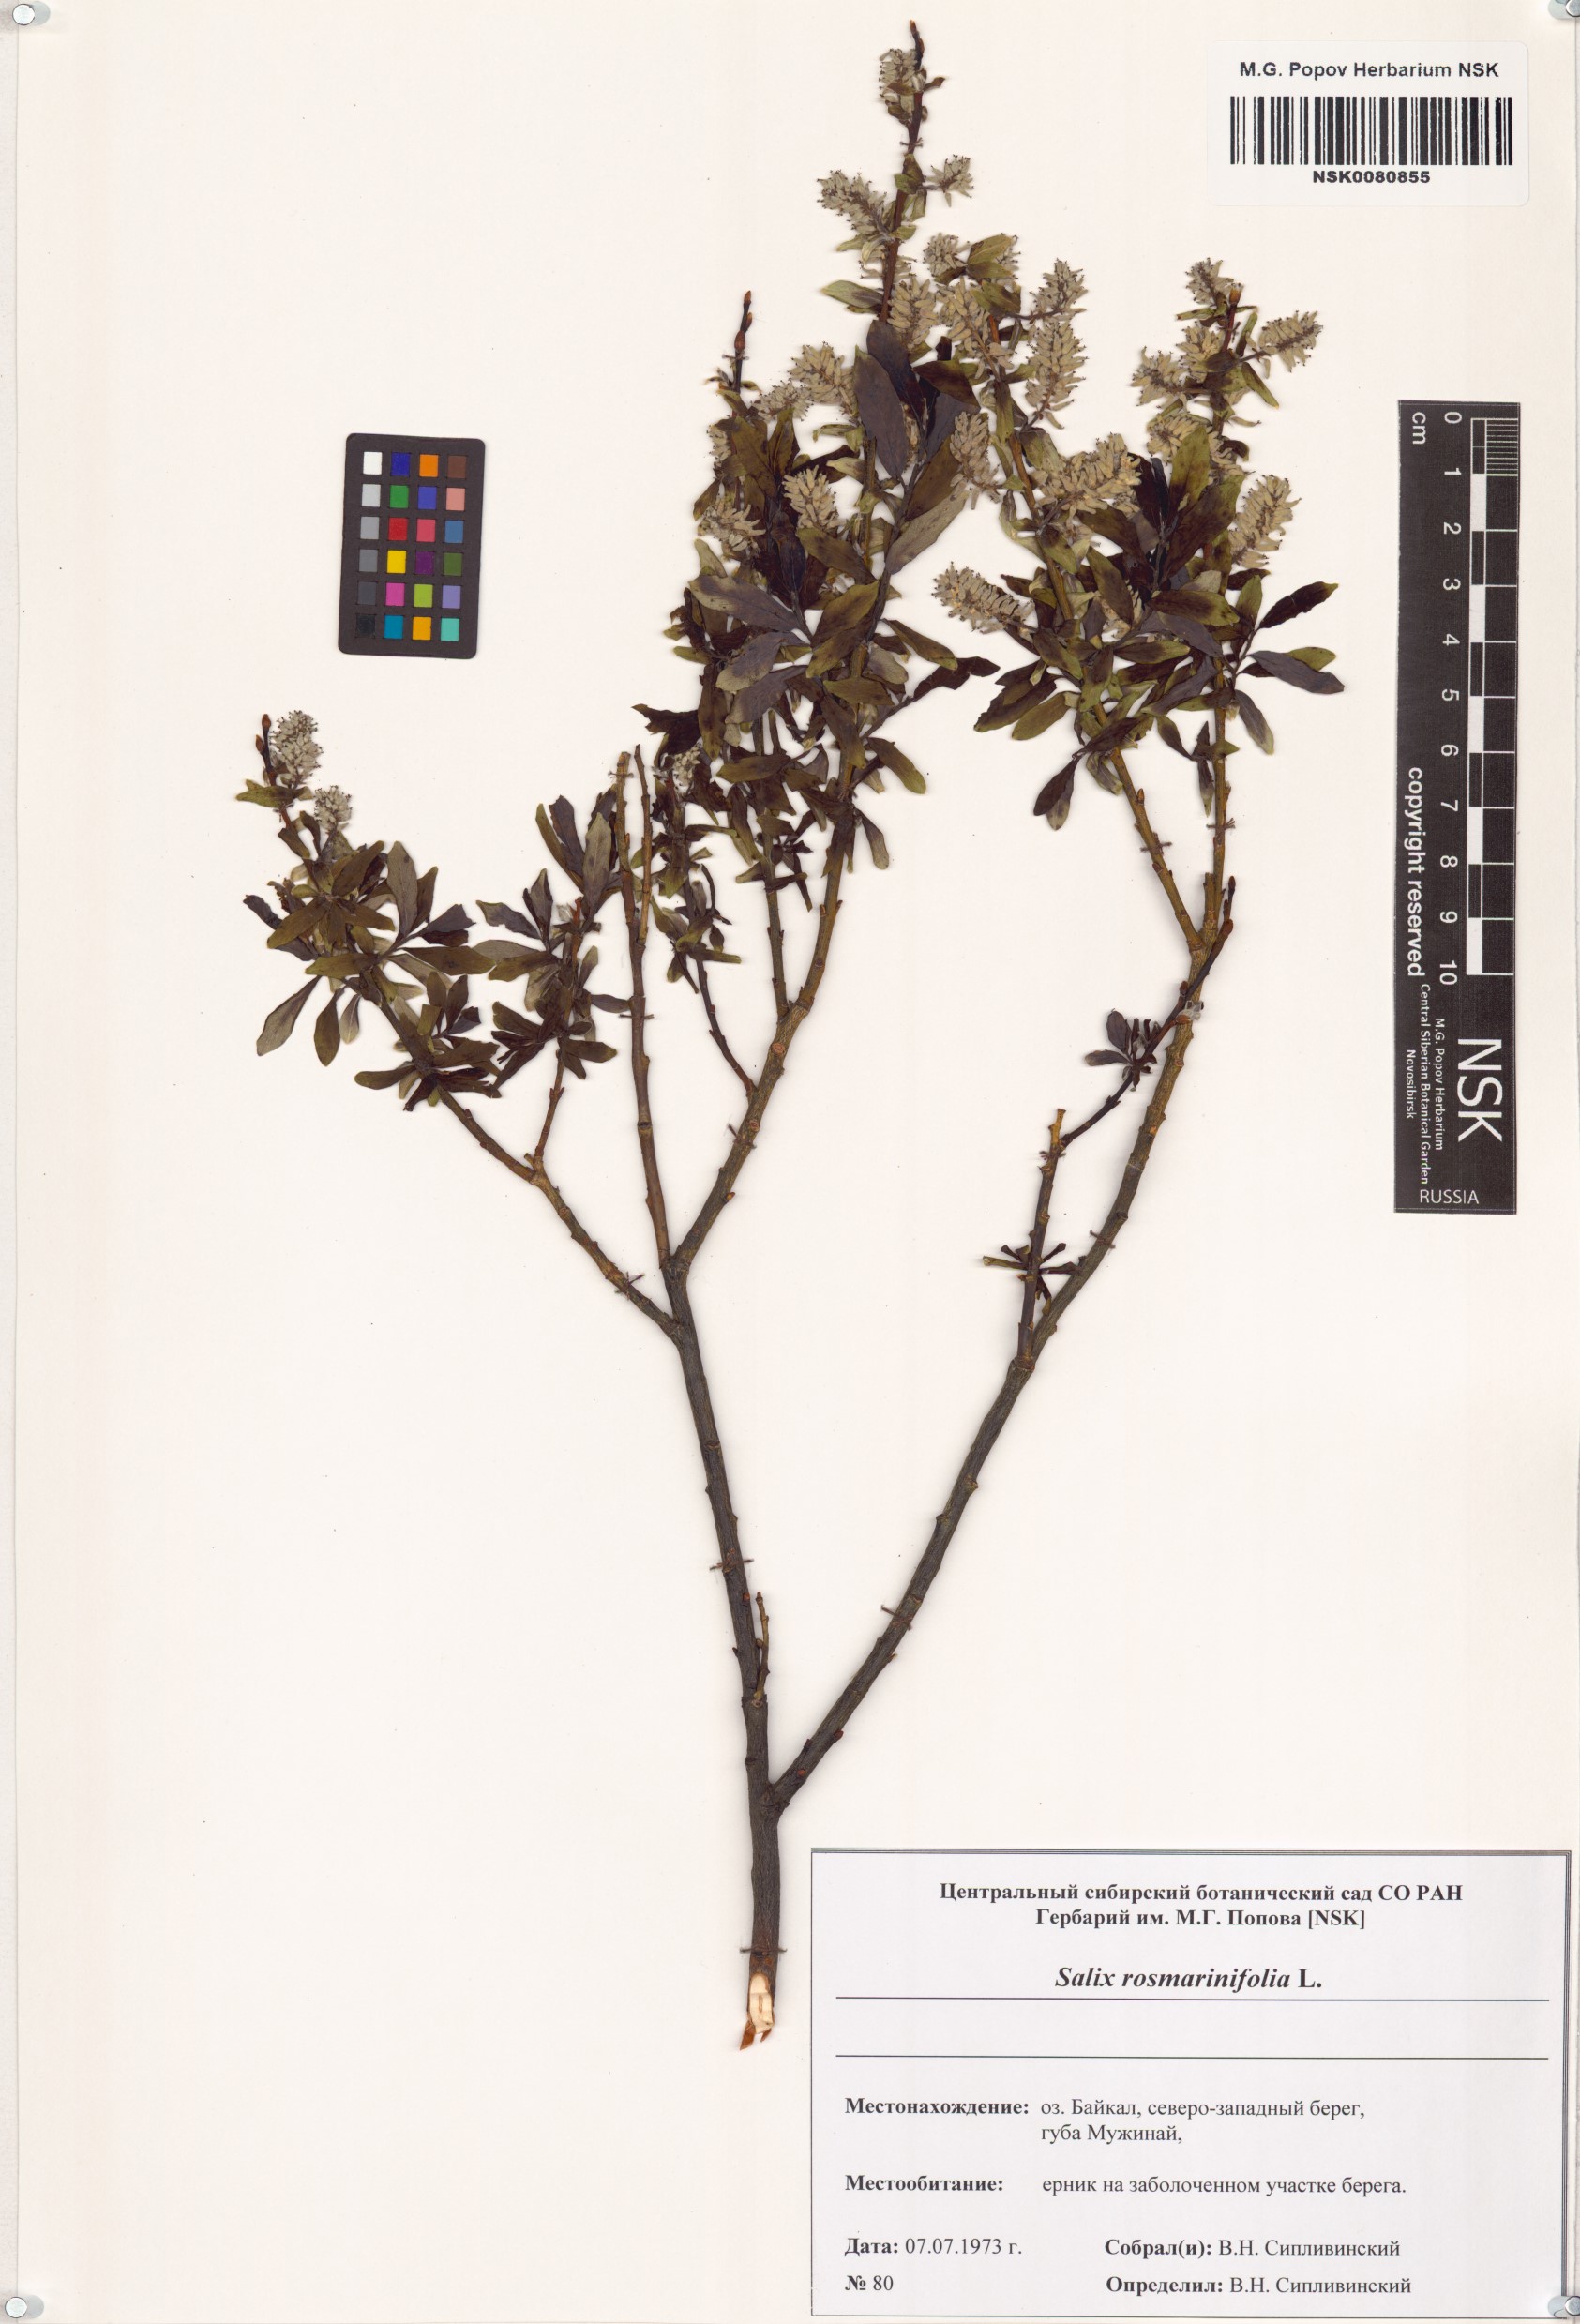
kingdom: Plantae
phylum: Tracheophyta
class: Magnoliopsida
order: Malpighiales
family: Salicaceae
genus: Salix
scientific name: Salix rosmarinifolia
